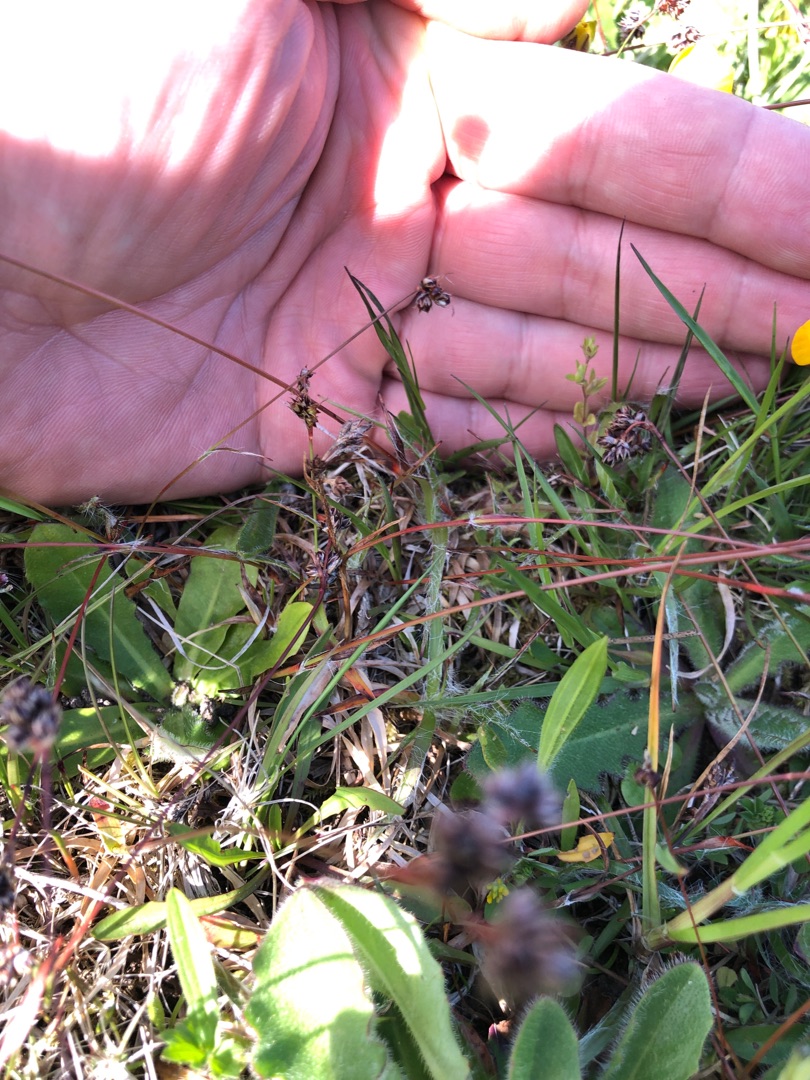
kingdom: Plantae
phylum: Tracheophyta
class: Liliopsida
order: Poales
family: Juncaceae
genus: Luzula
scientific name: Luzula campestris
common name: Mark-frytle
